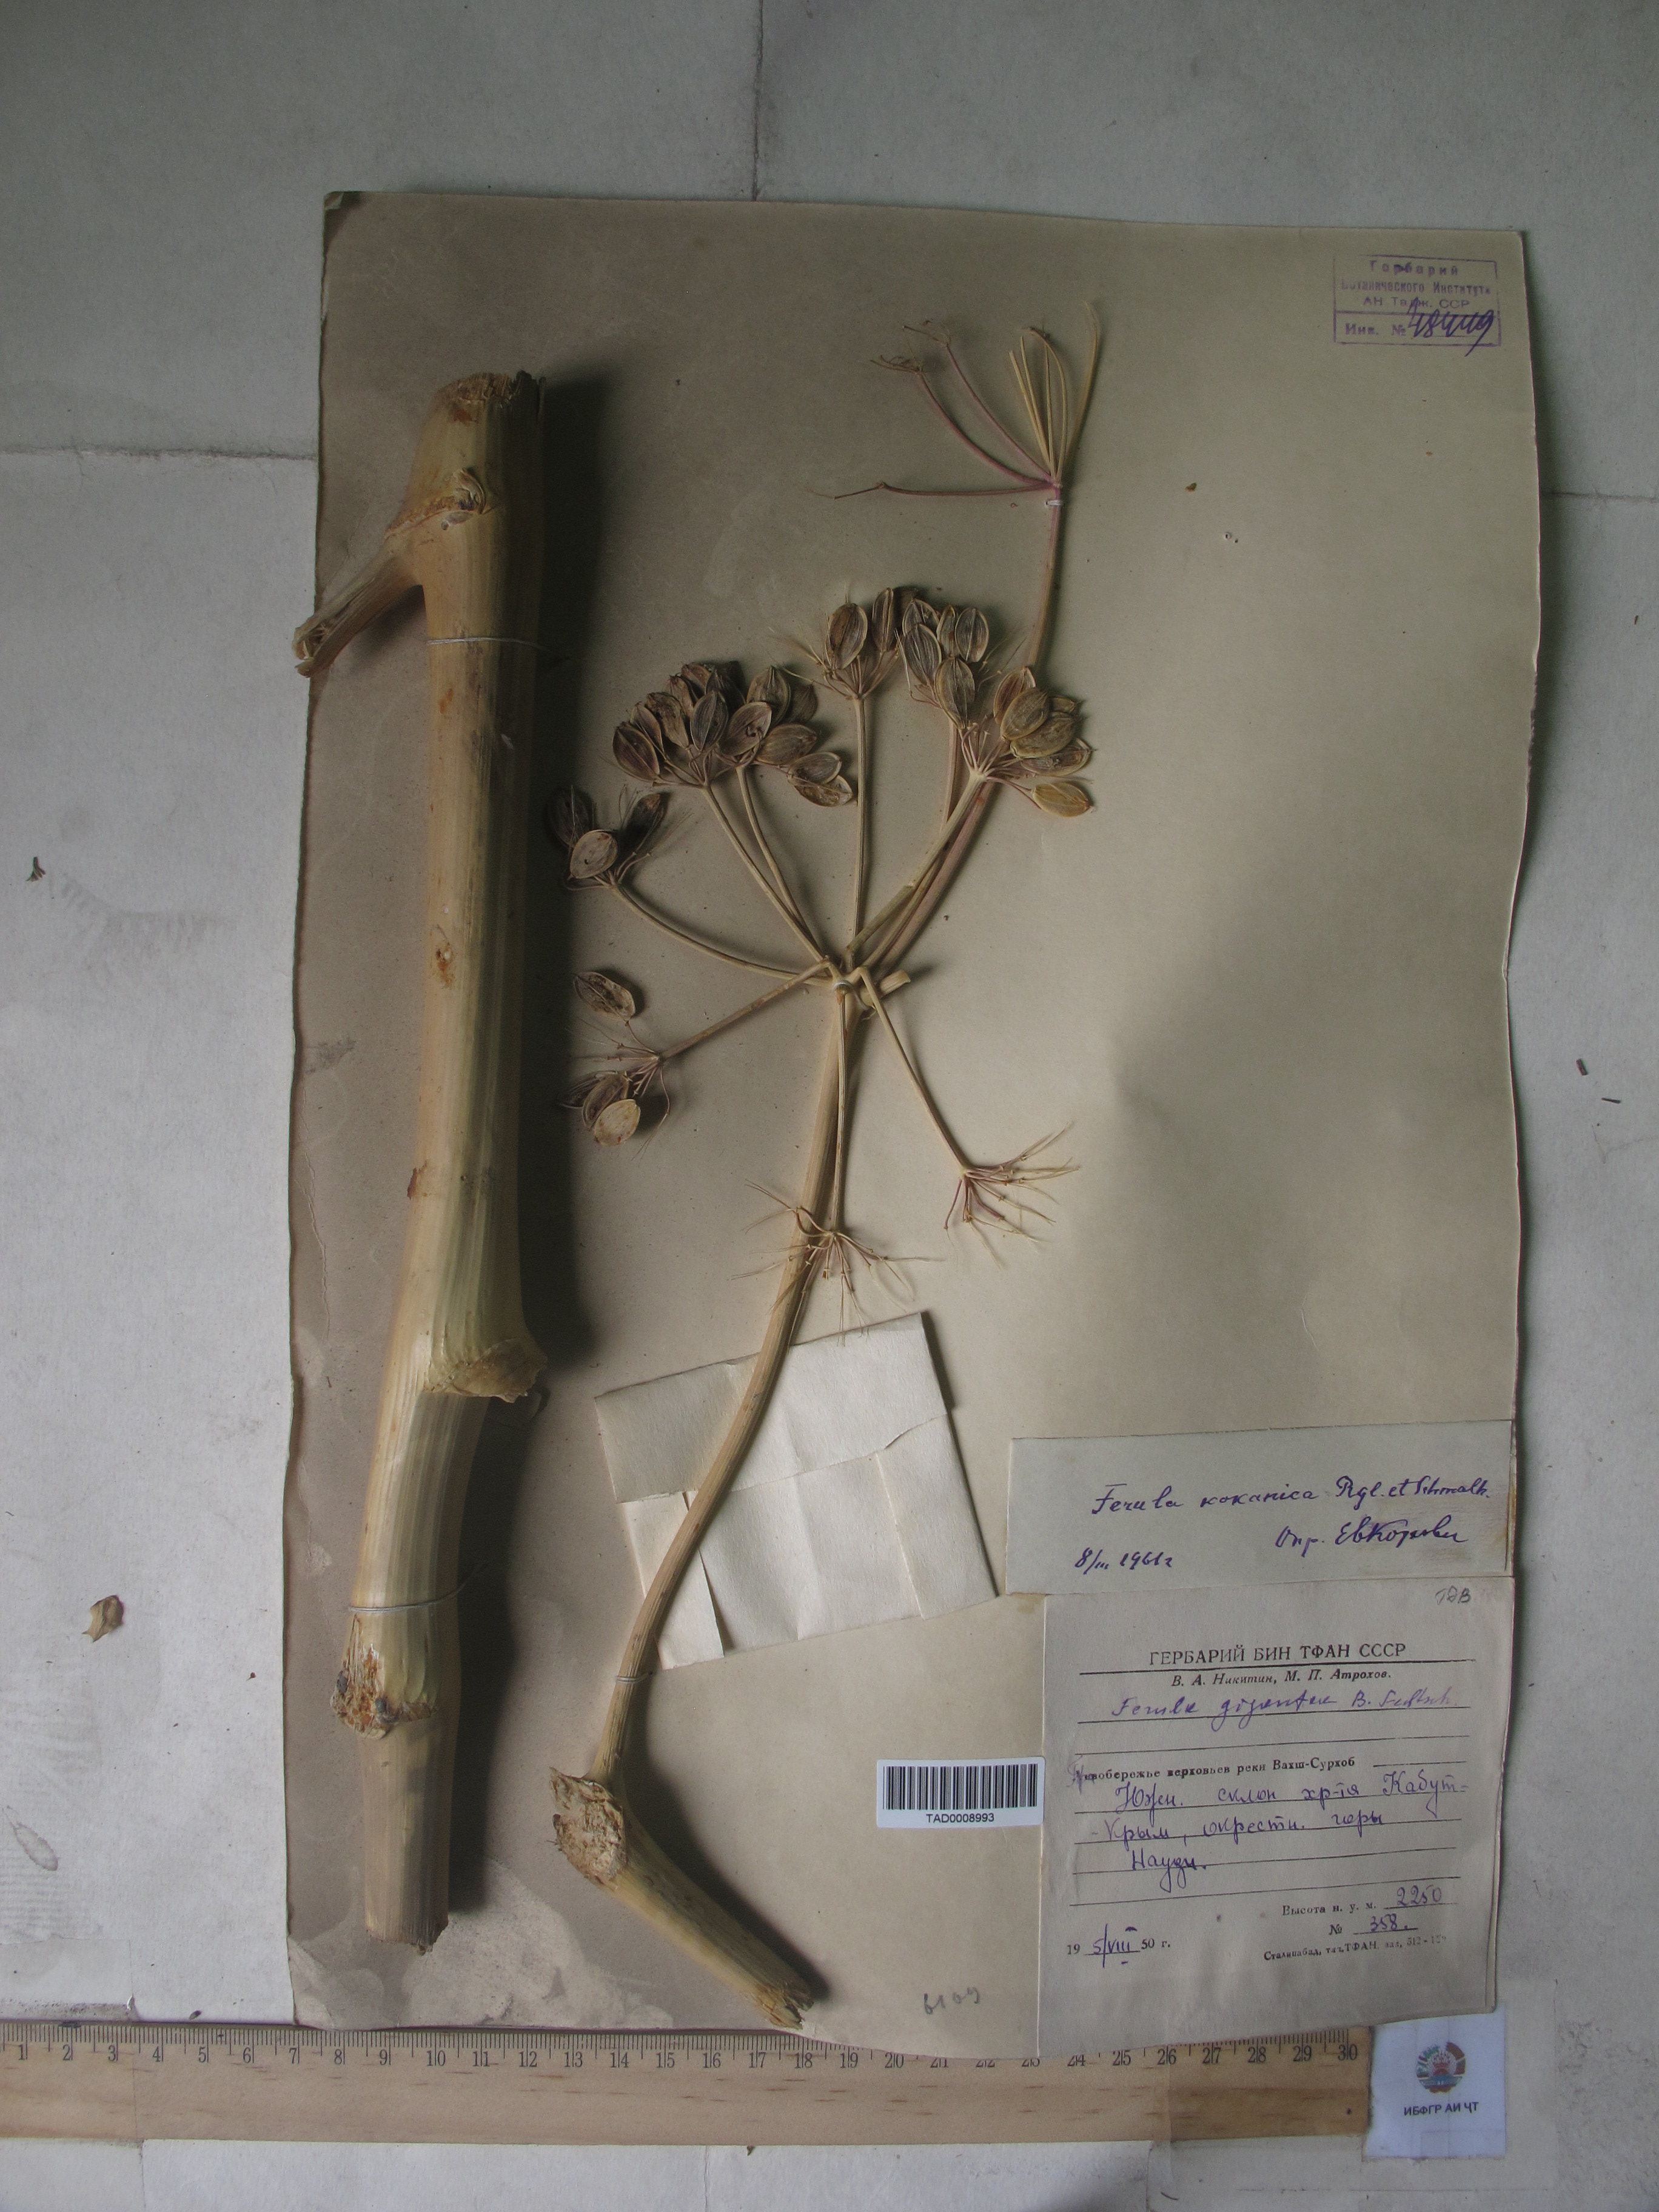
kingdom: Plantae
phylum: Tracheophyta
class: Magnoliopsida
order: Apiales
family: Apiaceae
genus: Ferula
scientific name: Ferula kokanica
